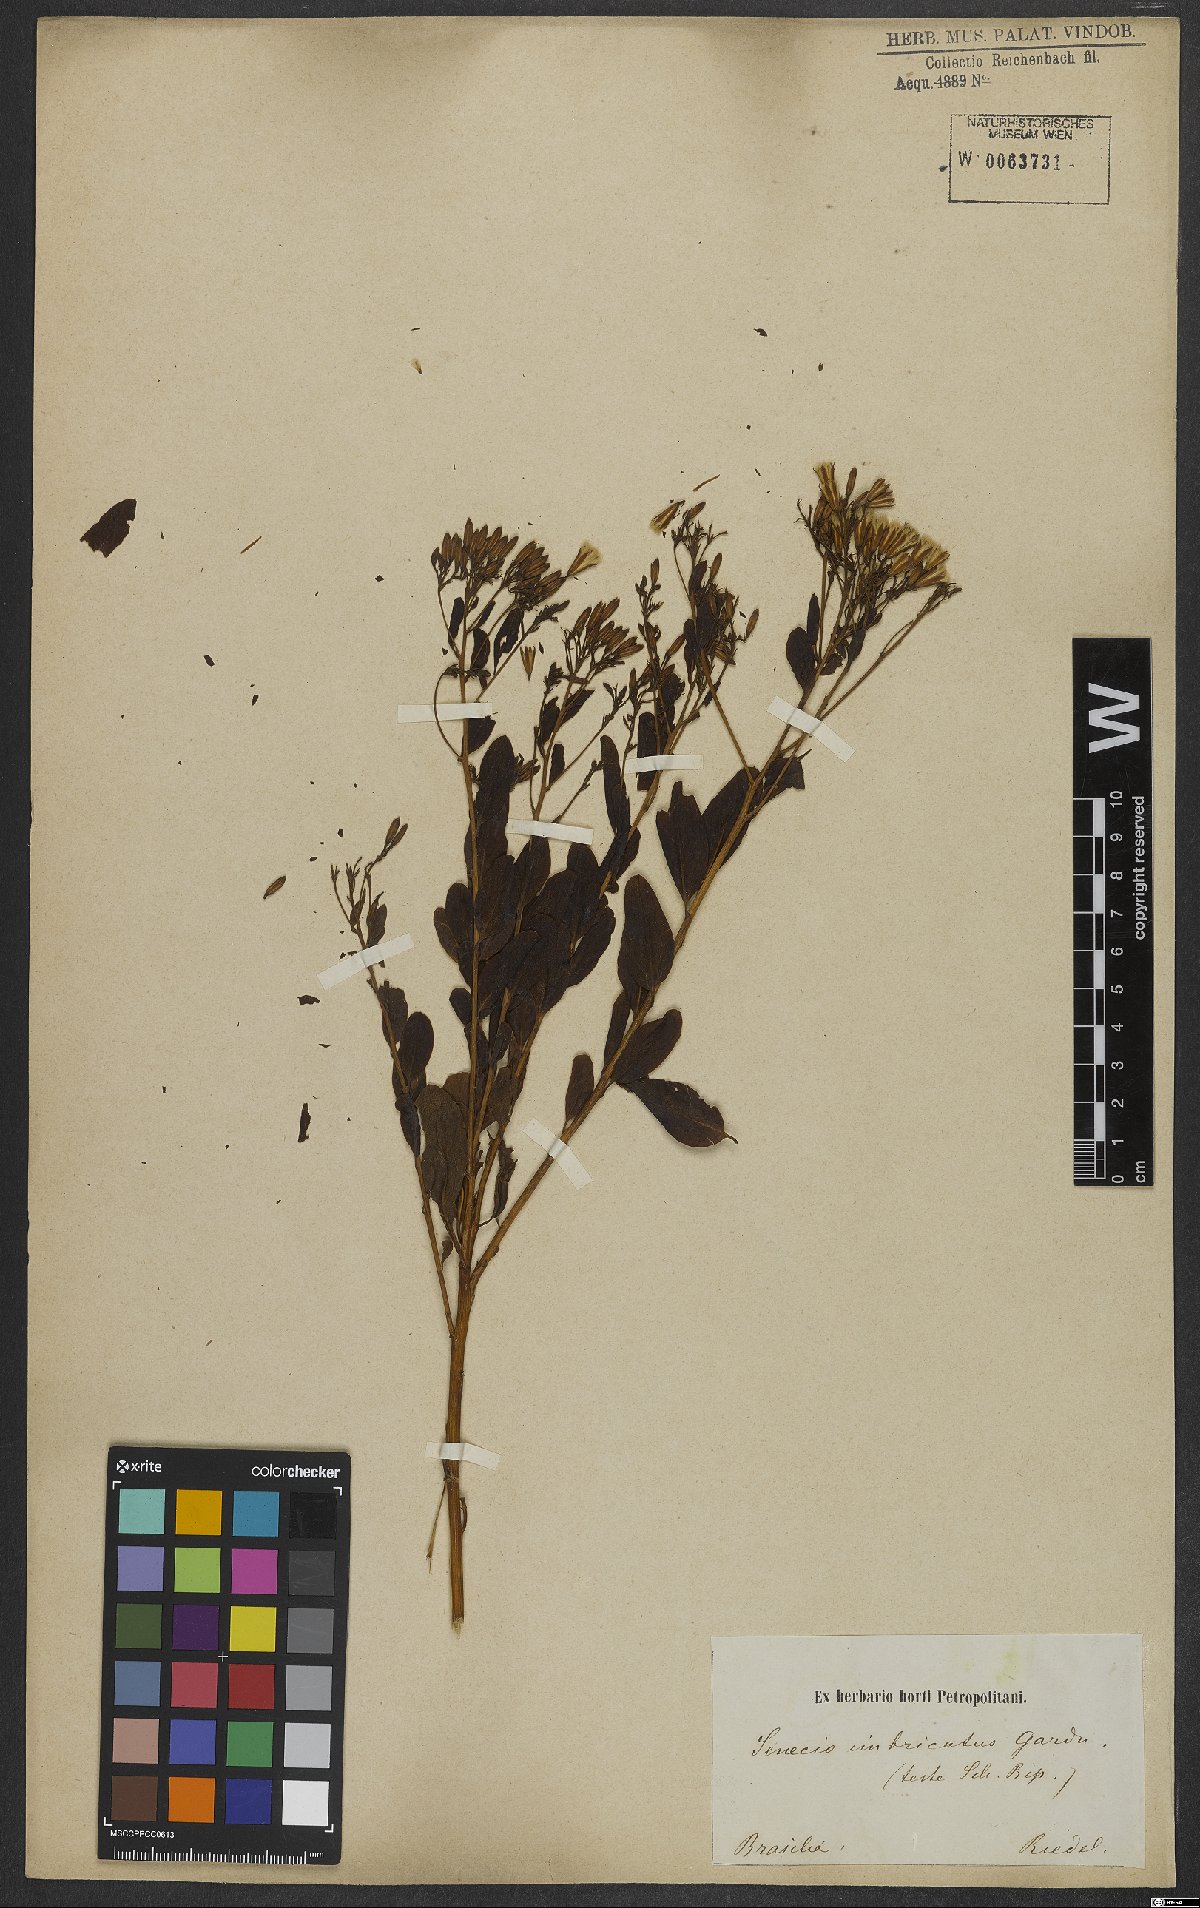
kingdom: Plantae
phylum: Tracheophyta
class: Magnoliopsida
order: Asterales
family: Asteraceae
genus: Hoehnephytum
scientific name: Hoehnephytum imbricatum
